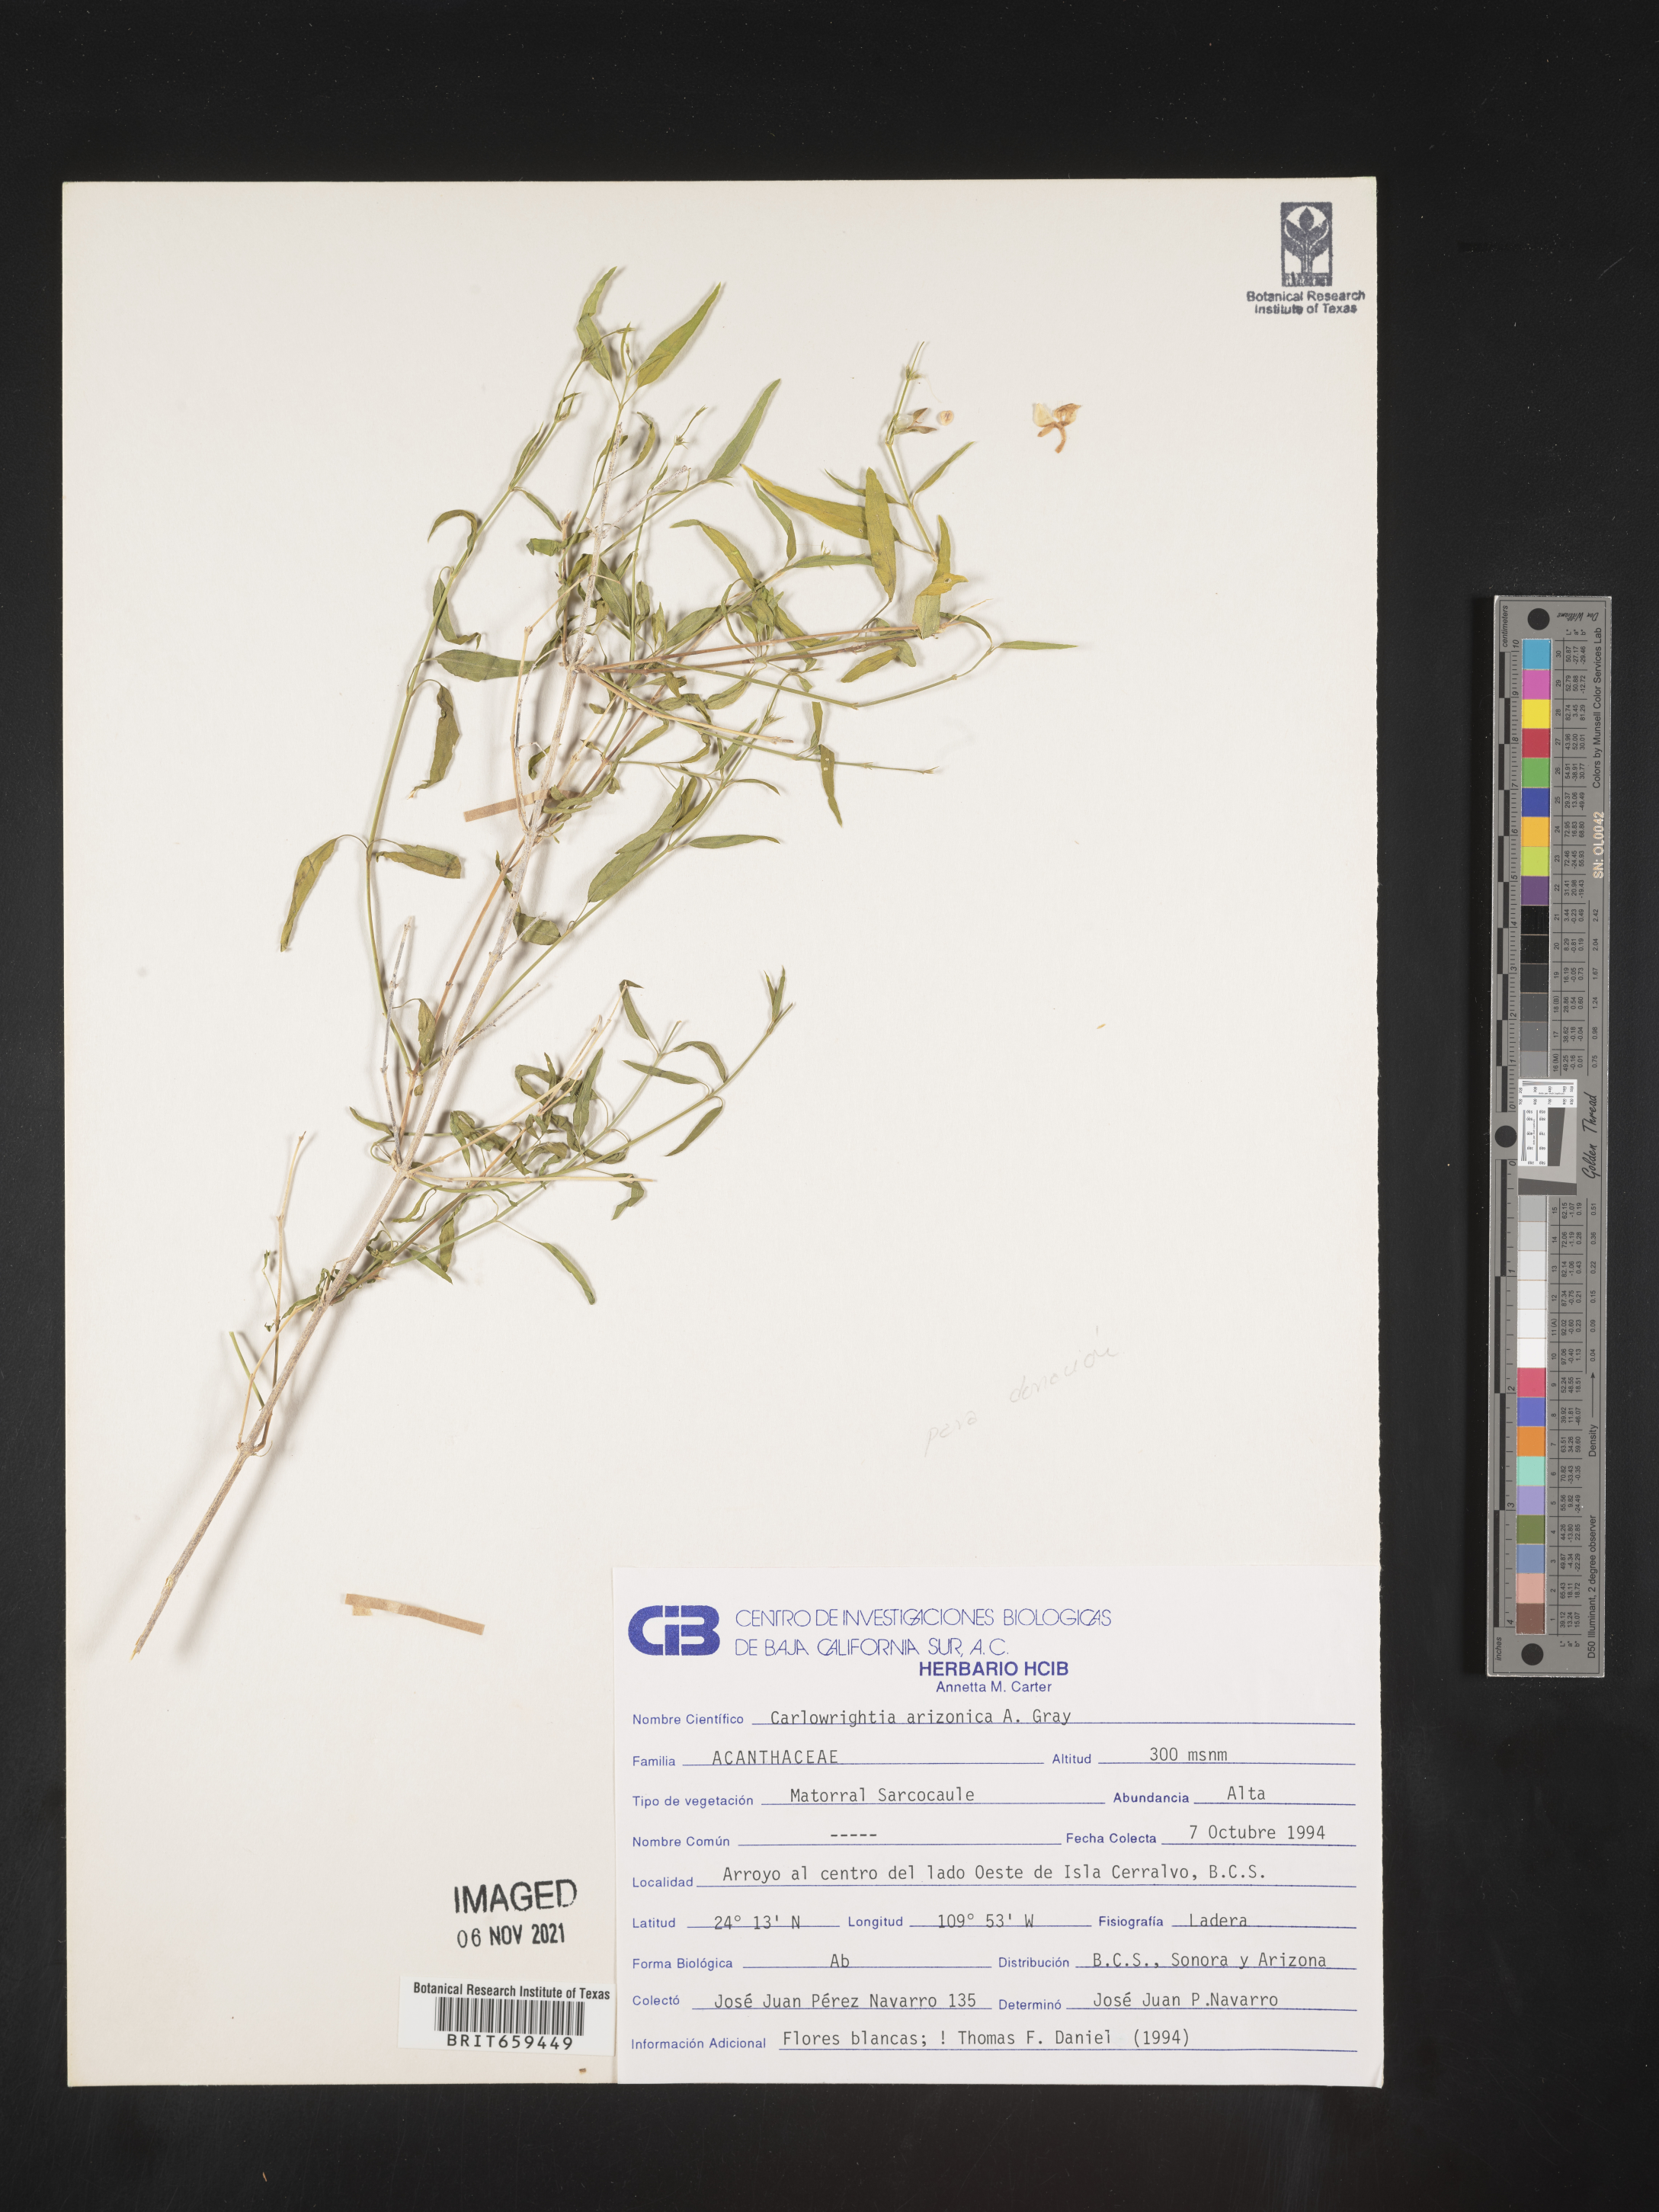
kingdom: Plantae
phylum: Tracheophyta
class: Magnoliopsida
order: Lamiales
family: Acanthaceae
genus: Carlowrightia
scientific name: Carlowrightia
